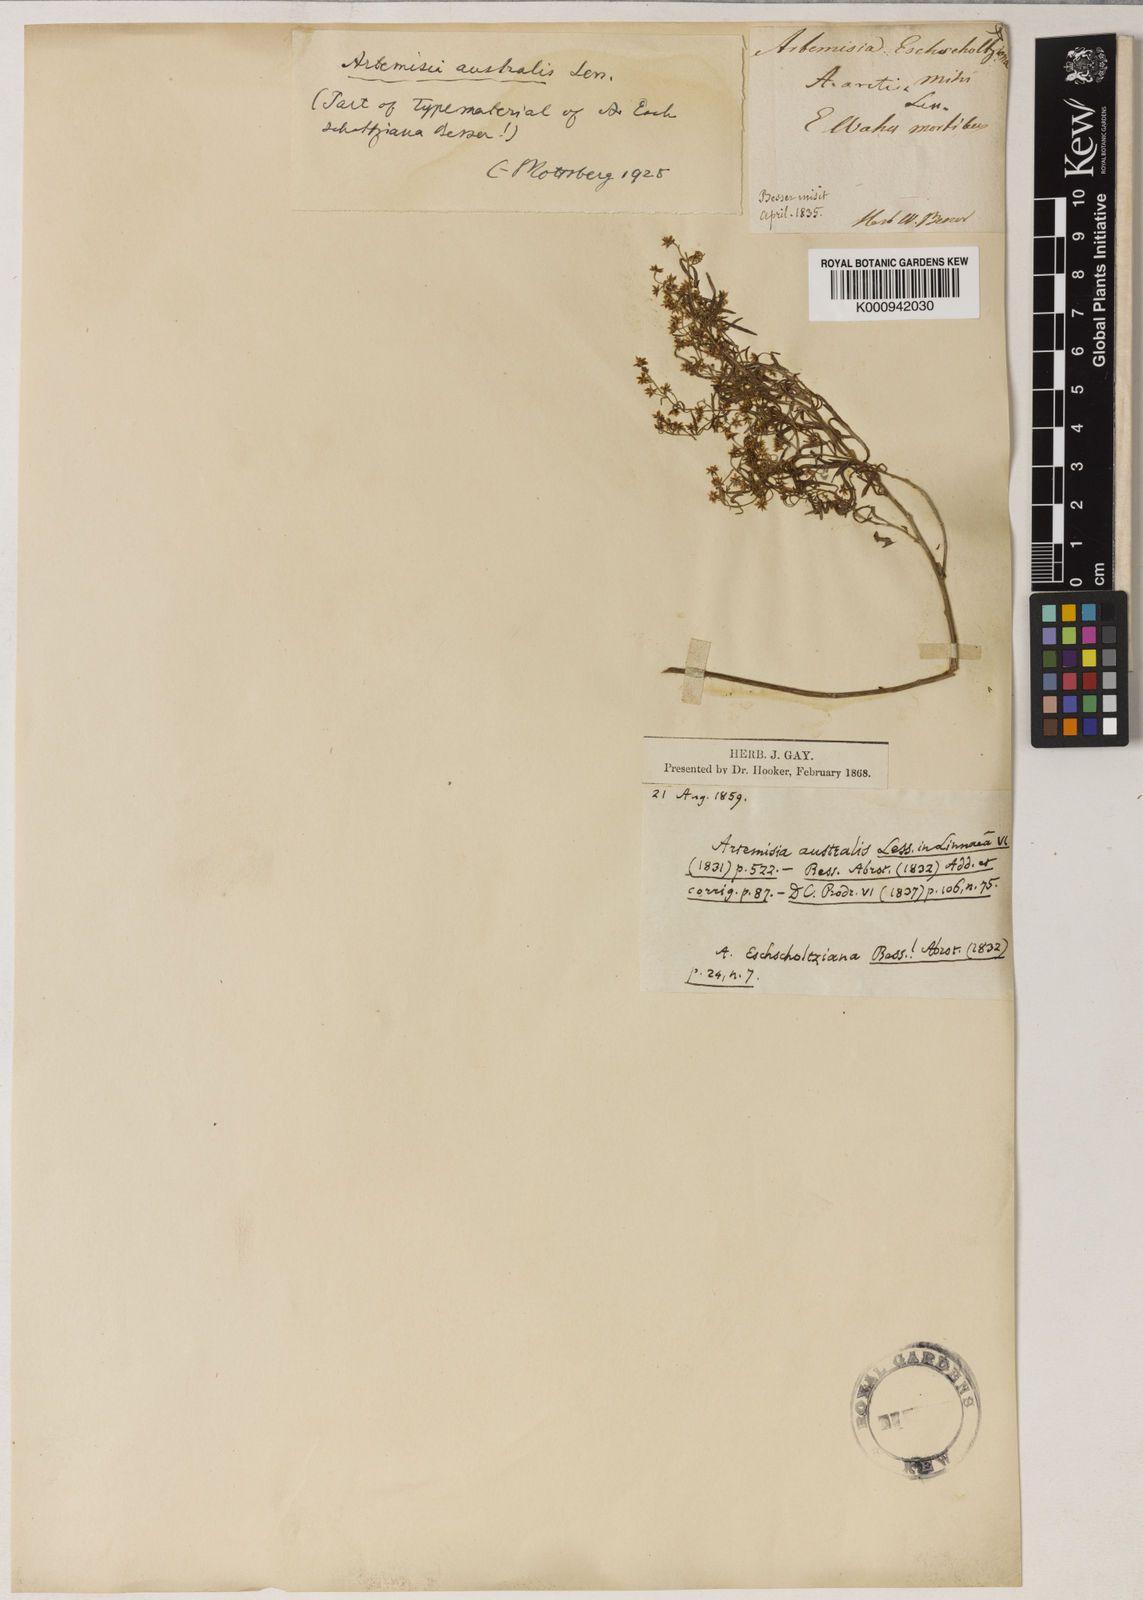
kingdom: Plantae
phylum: Tracheophyta
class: Magnoliopsida
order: Asterales
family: Asteraceae
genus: Artemisia
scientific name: Artemisia australis
